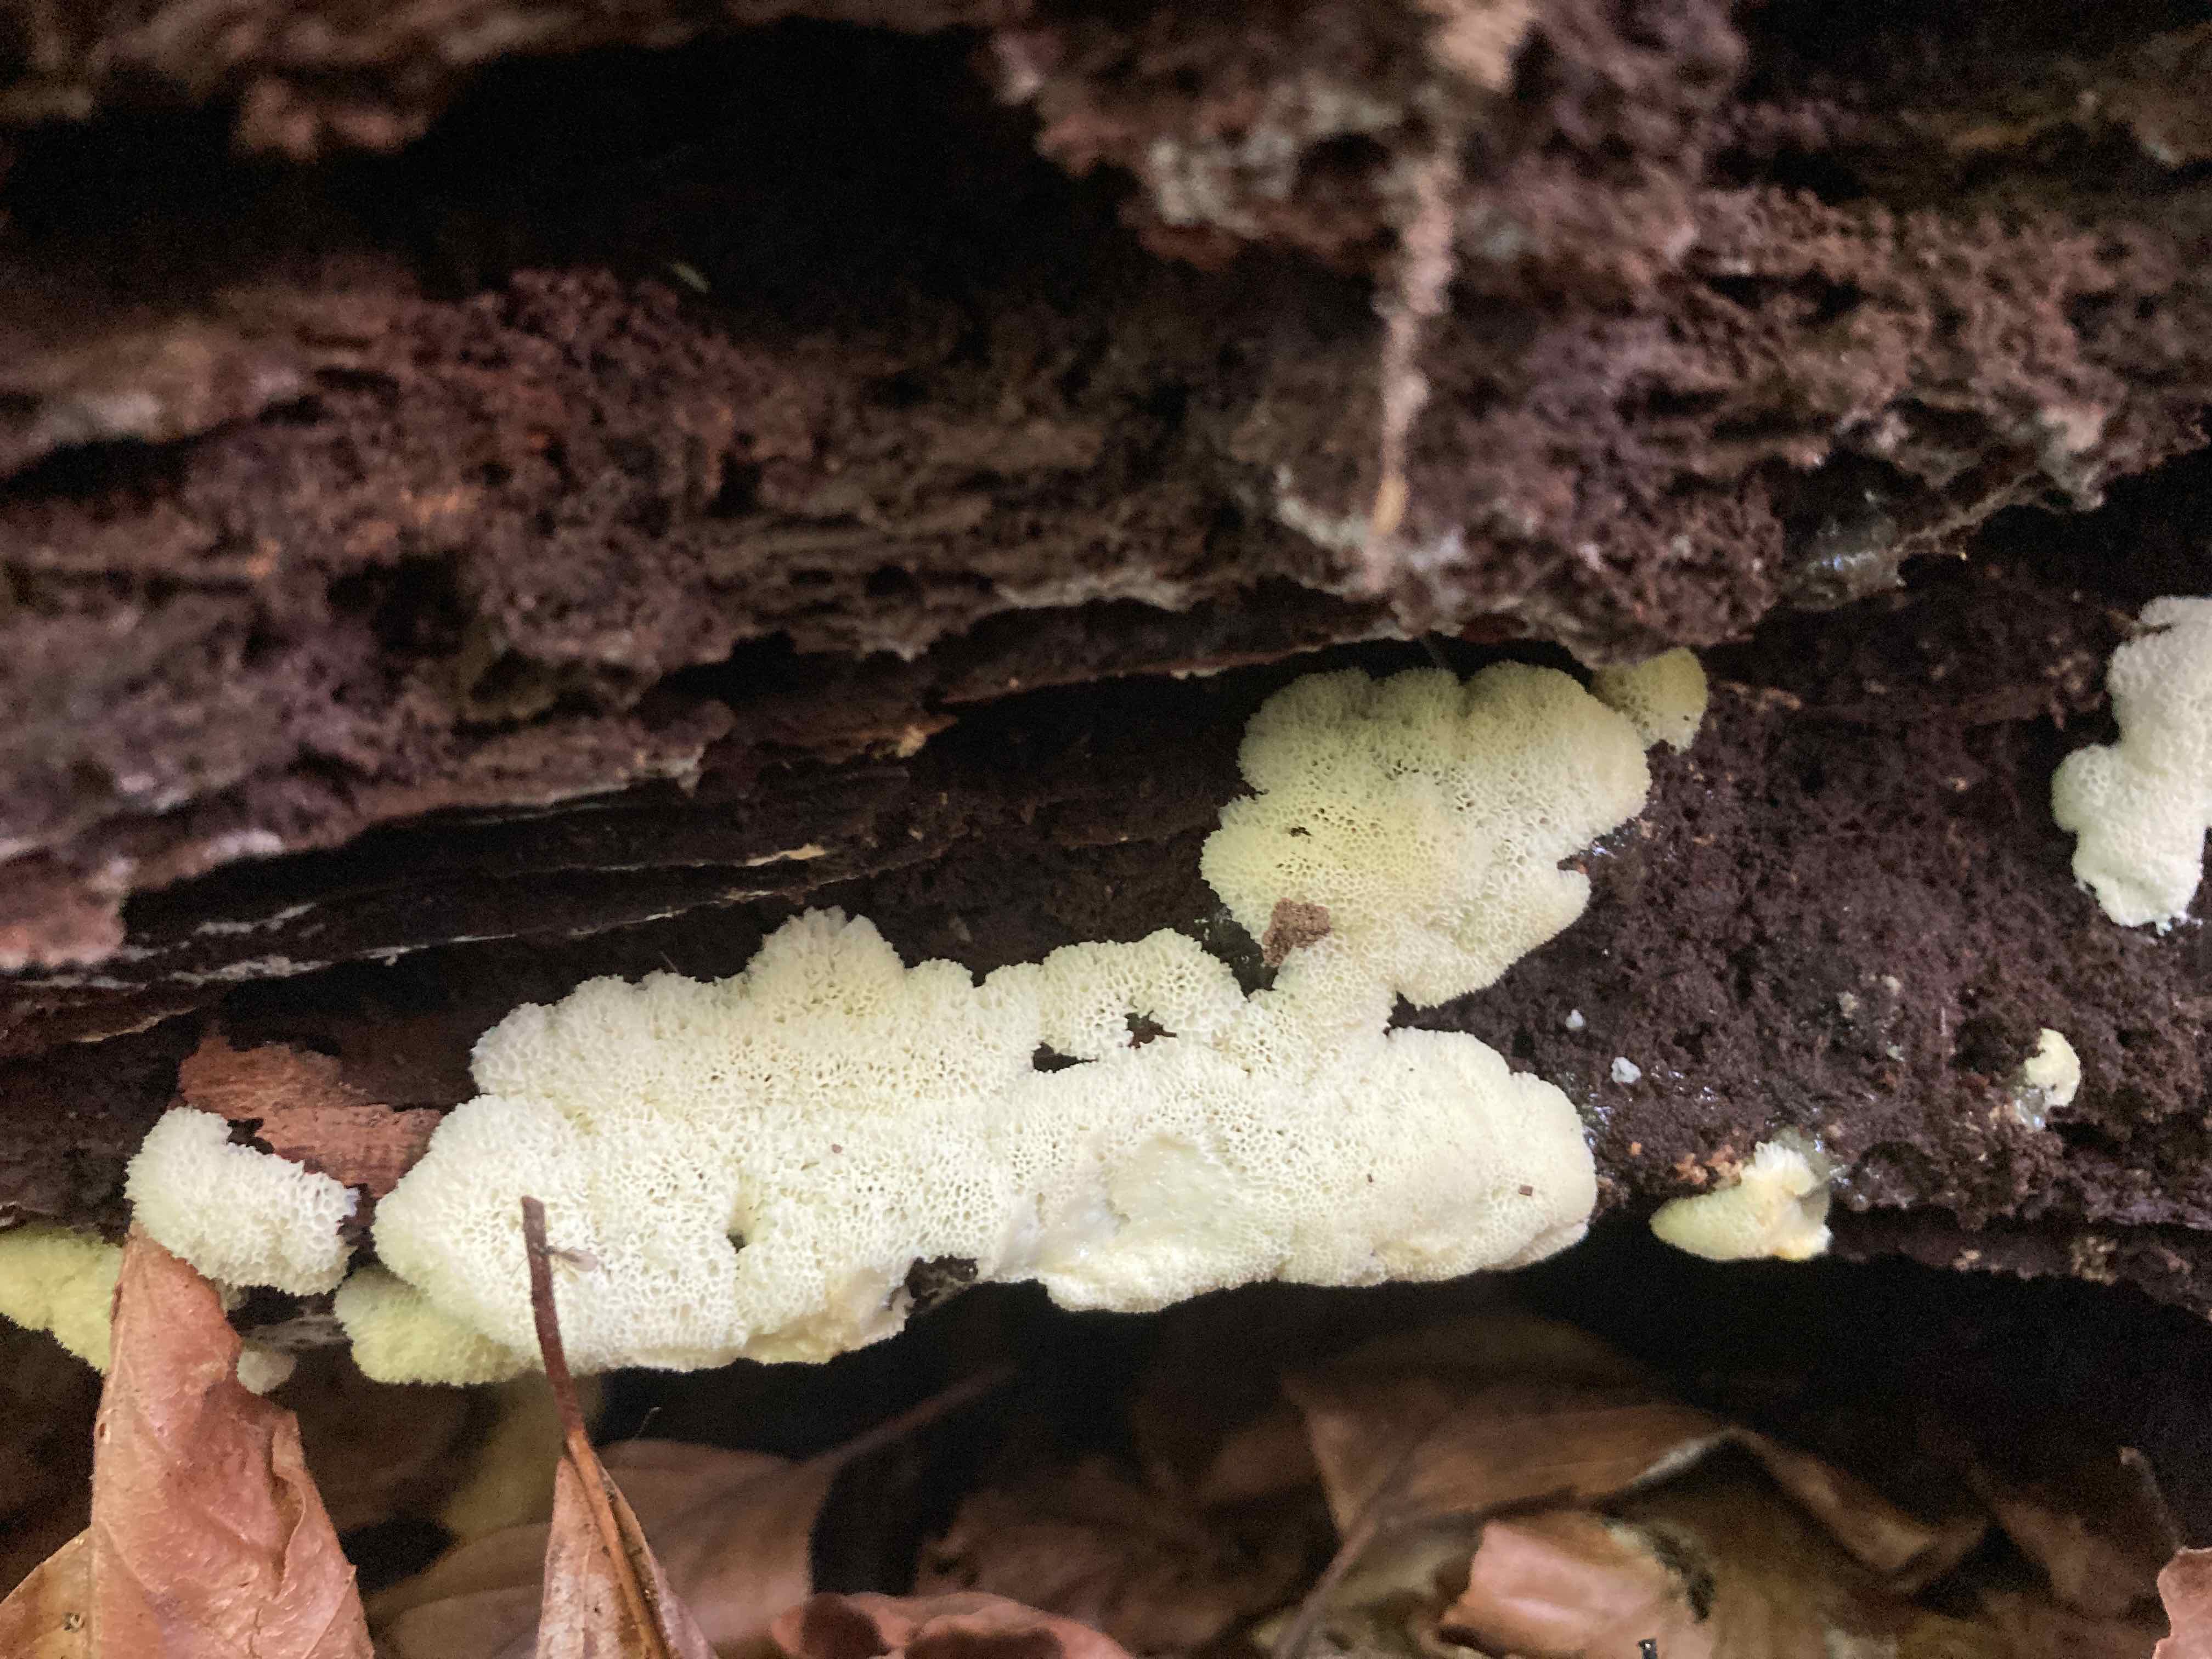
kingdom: Protozoa
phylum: Mycetozoa
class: Protosteliomycetes
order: Ceratiomyxales
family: Ceratiomyxaceae
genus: Ceratiomyxa
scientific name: Ceratiomyxa fruticulosa
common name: Honeycomb coral slime mold
